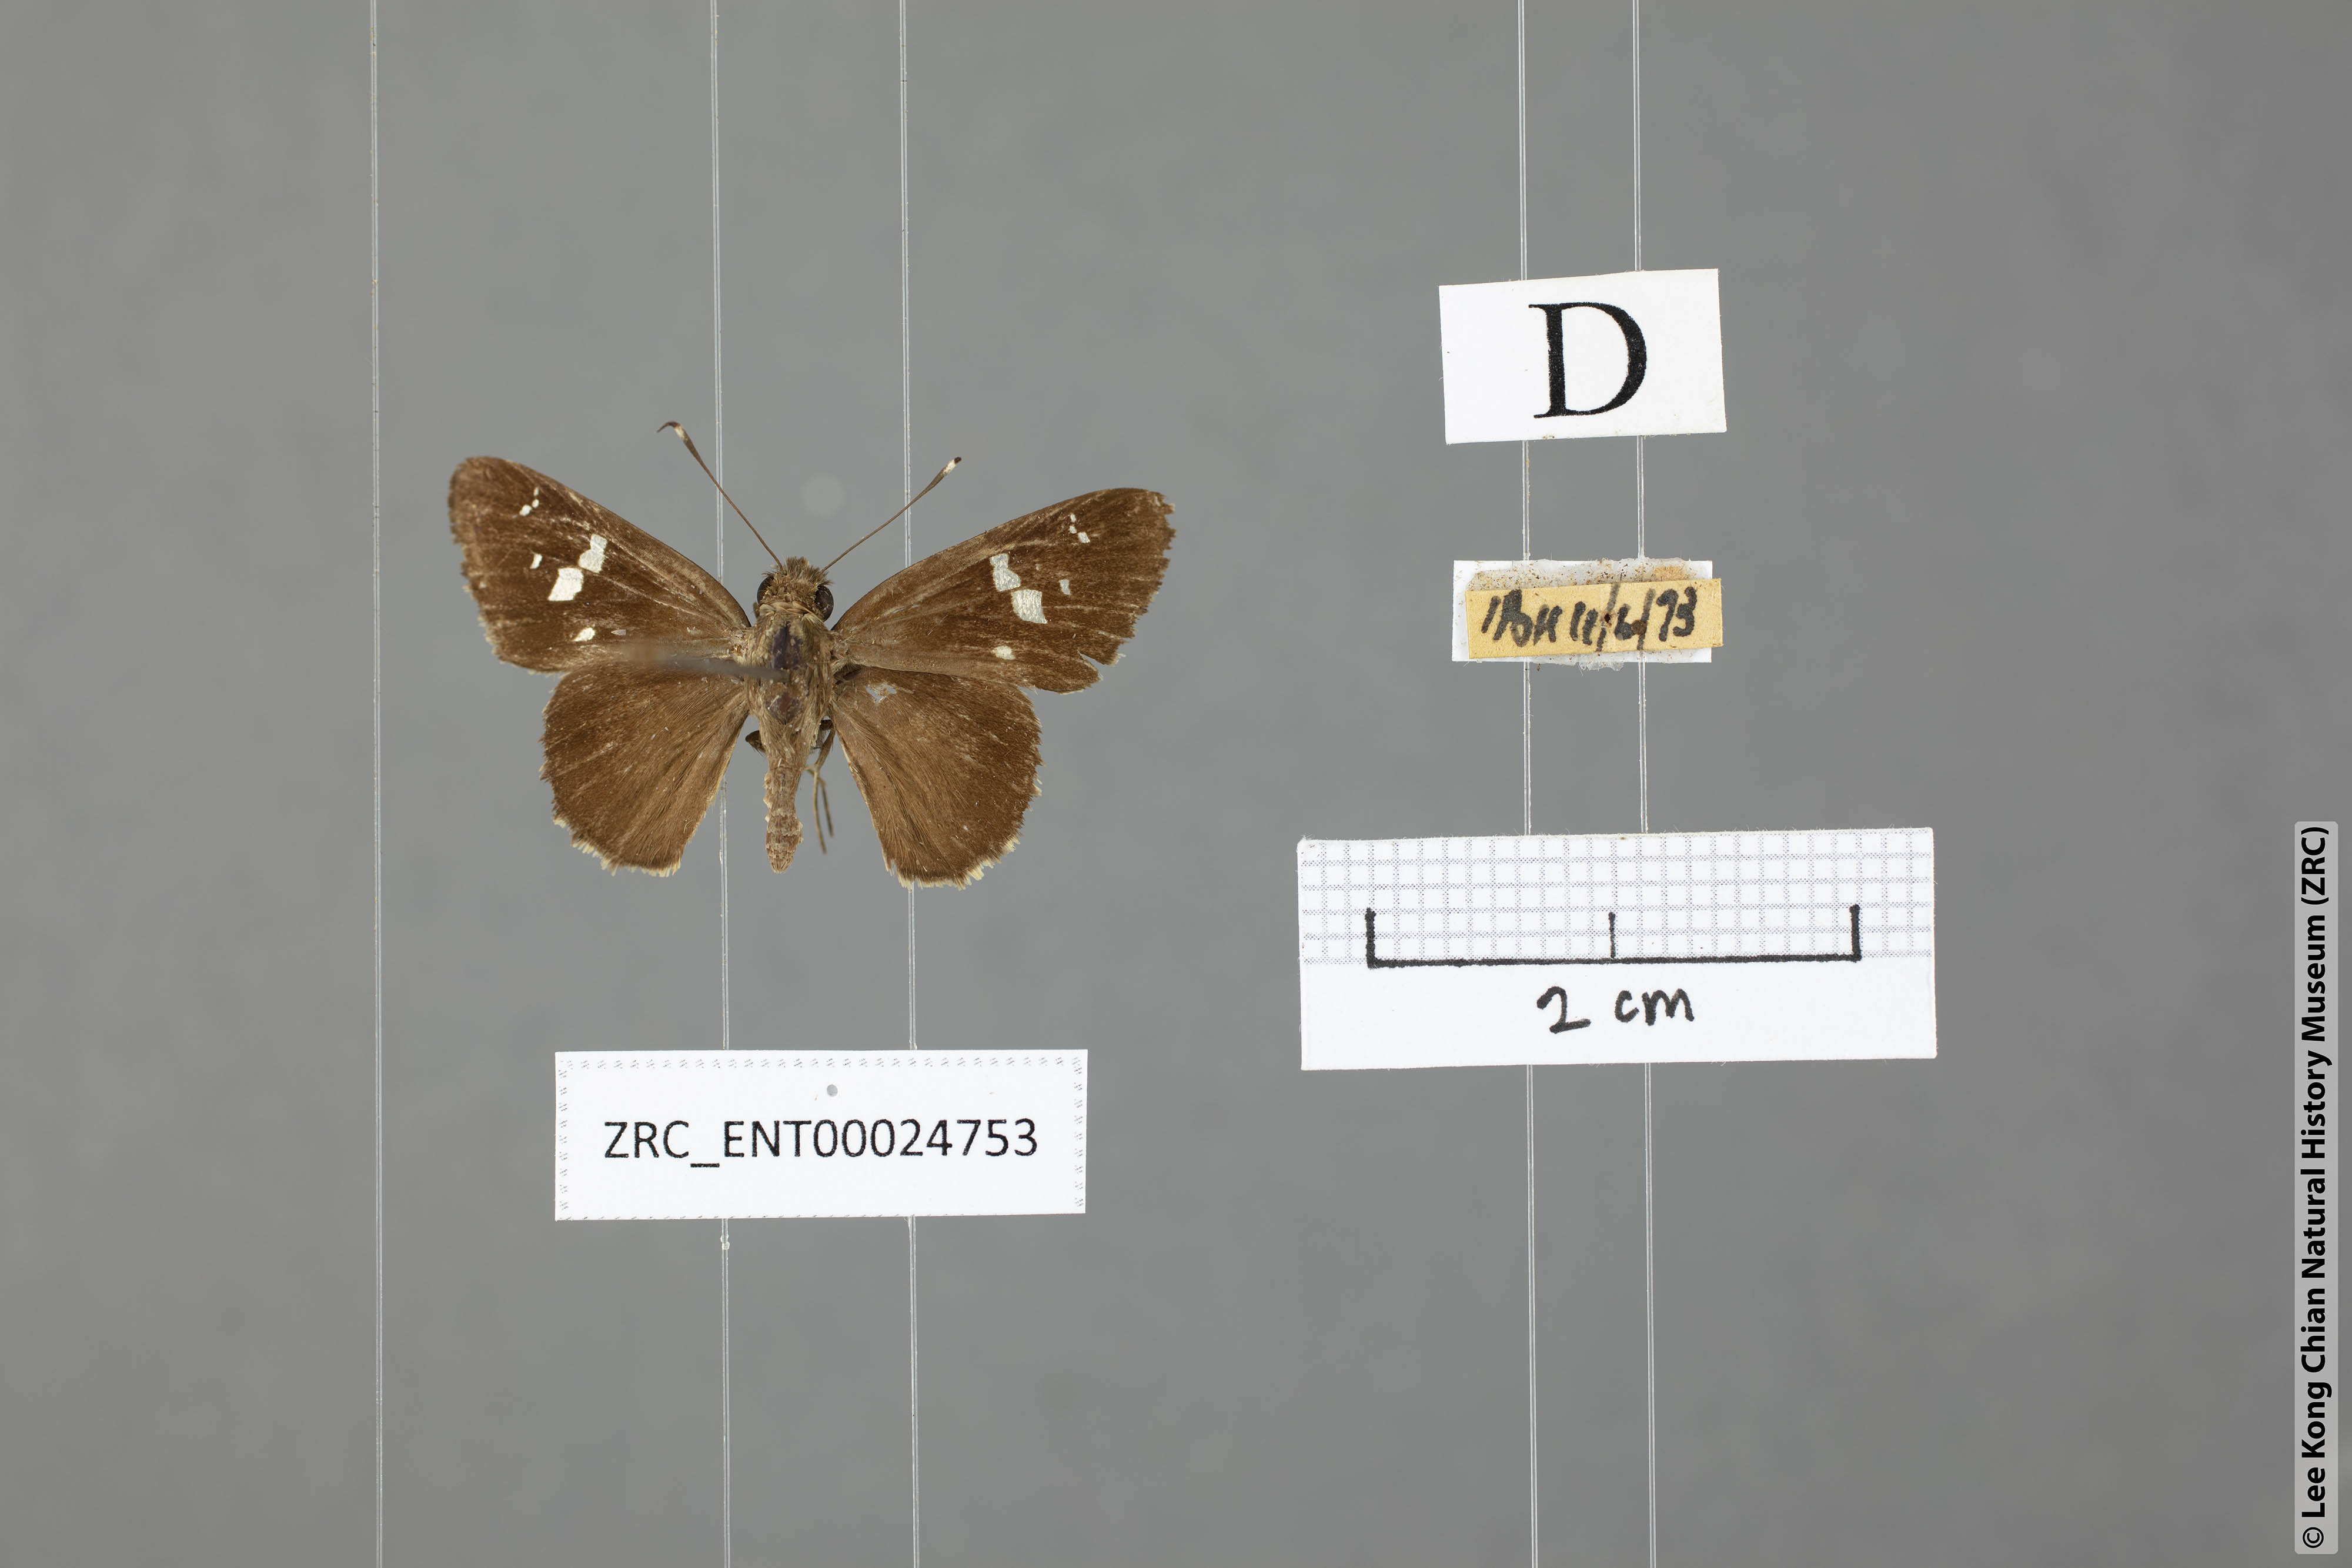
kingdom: Animalia
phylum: Arthropoda
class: Insecta
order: Lepidoptera
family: Hesperiidae
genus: Hyarotis
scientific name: Hyarotis adrastus
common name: Tree flitter
